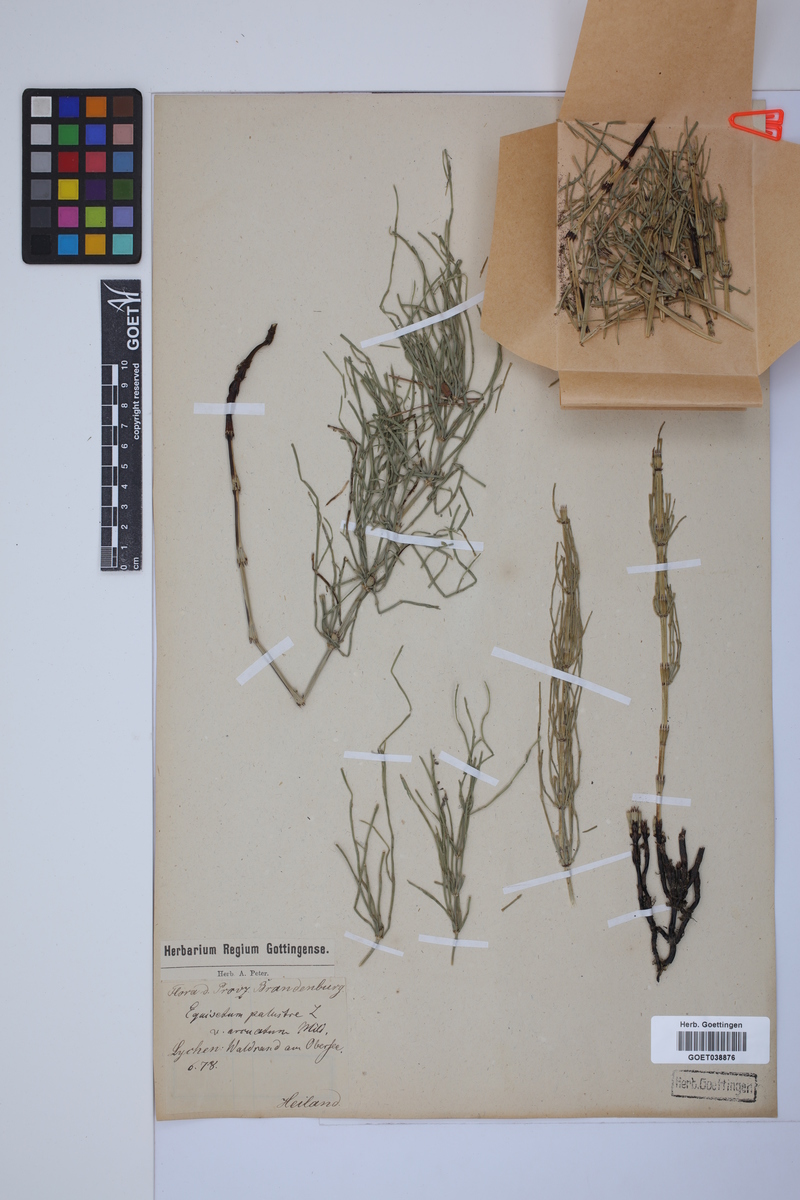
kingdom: Plantae
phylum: Tracheophyta
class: Polypodiopsida
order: Equisetales
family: Equisetaceae
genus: Equisetum
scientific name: Equisetum palustre
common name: Marsh horsetail
